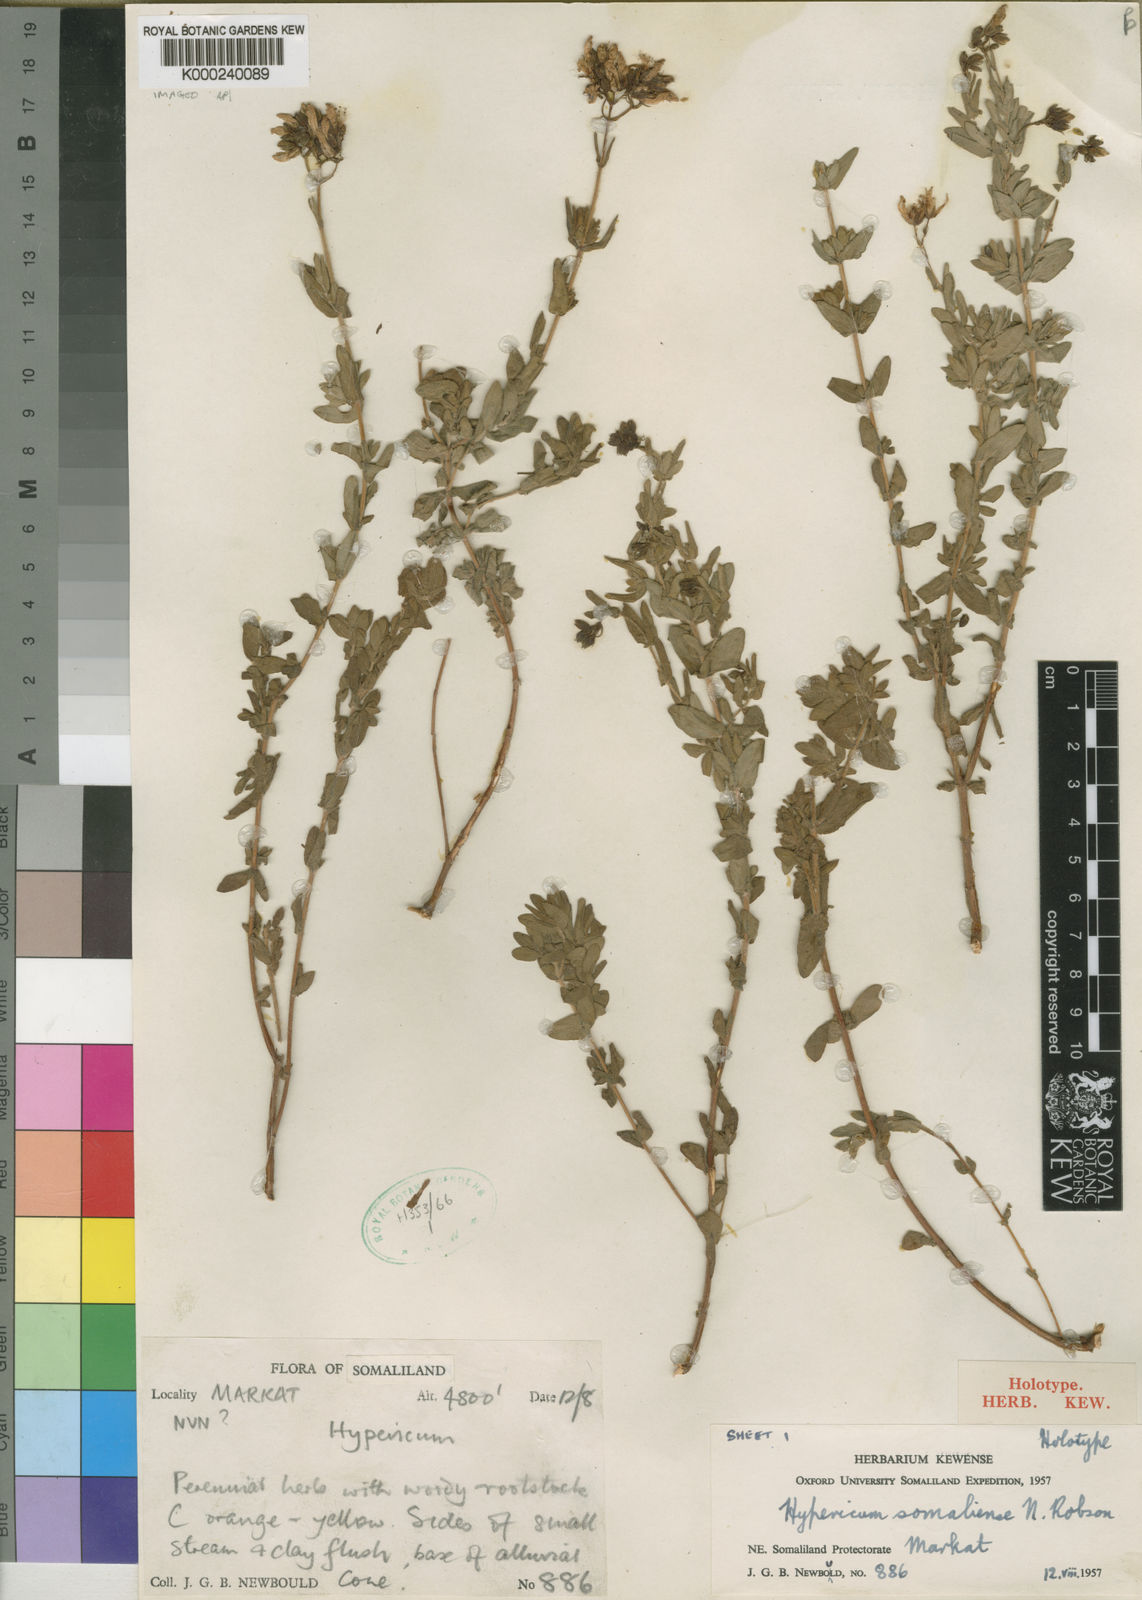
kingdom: Plantae
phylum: Tracheophyta
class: Magnoliopsida
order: Malpighiales
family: Hypericaceae
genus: Hypericum
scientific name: Hypericum somaliense
